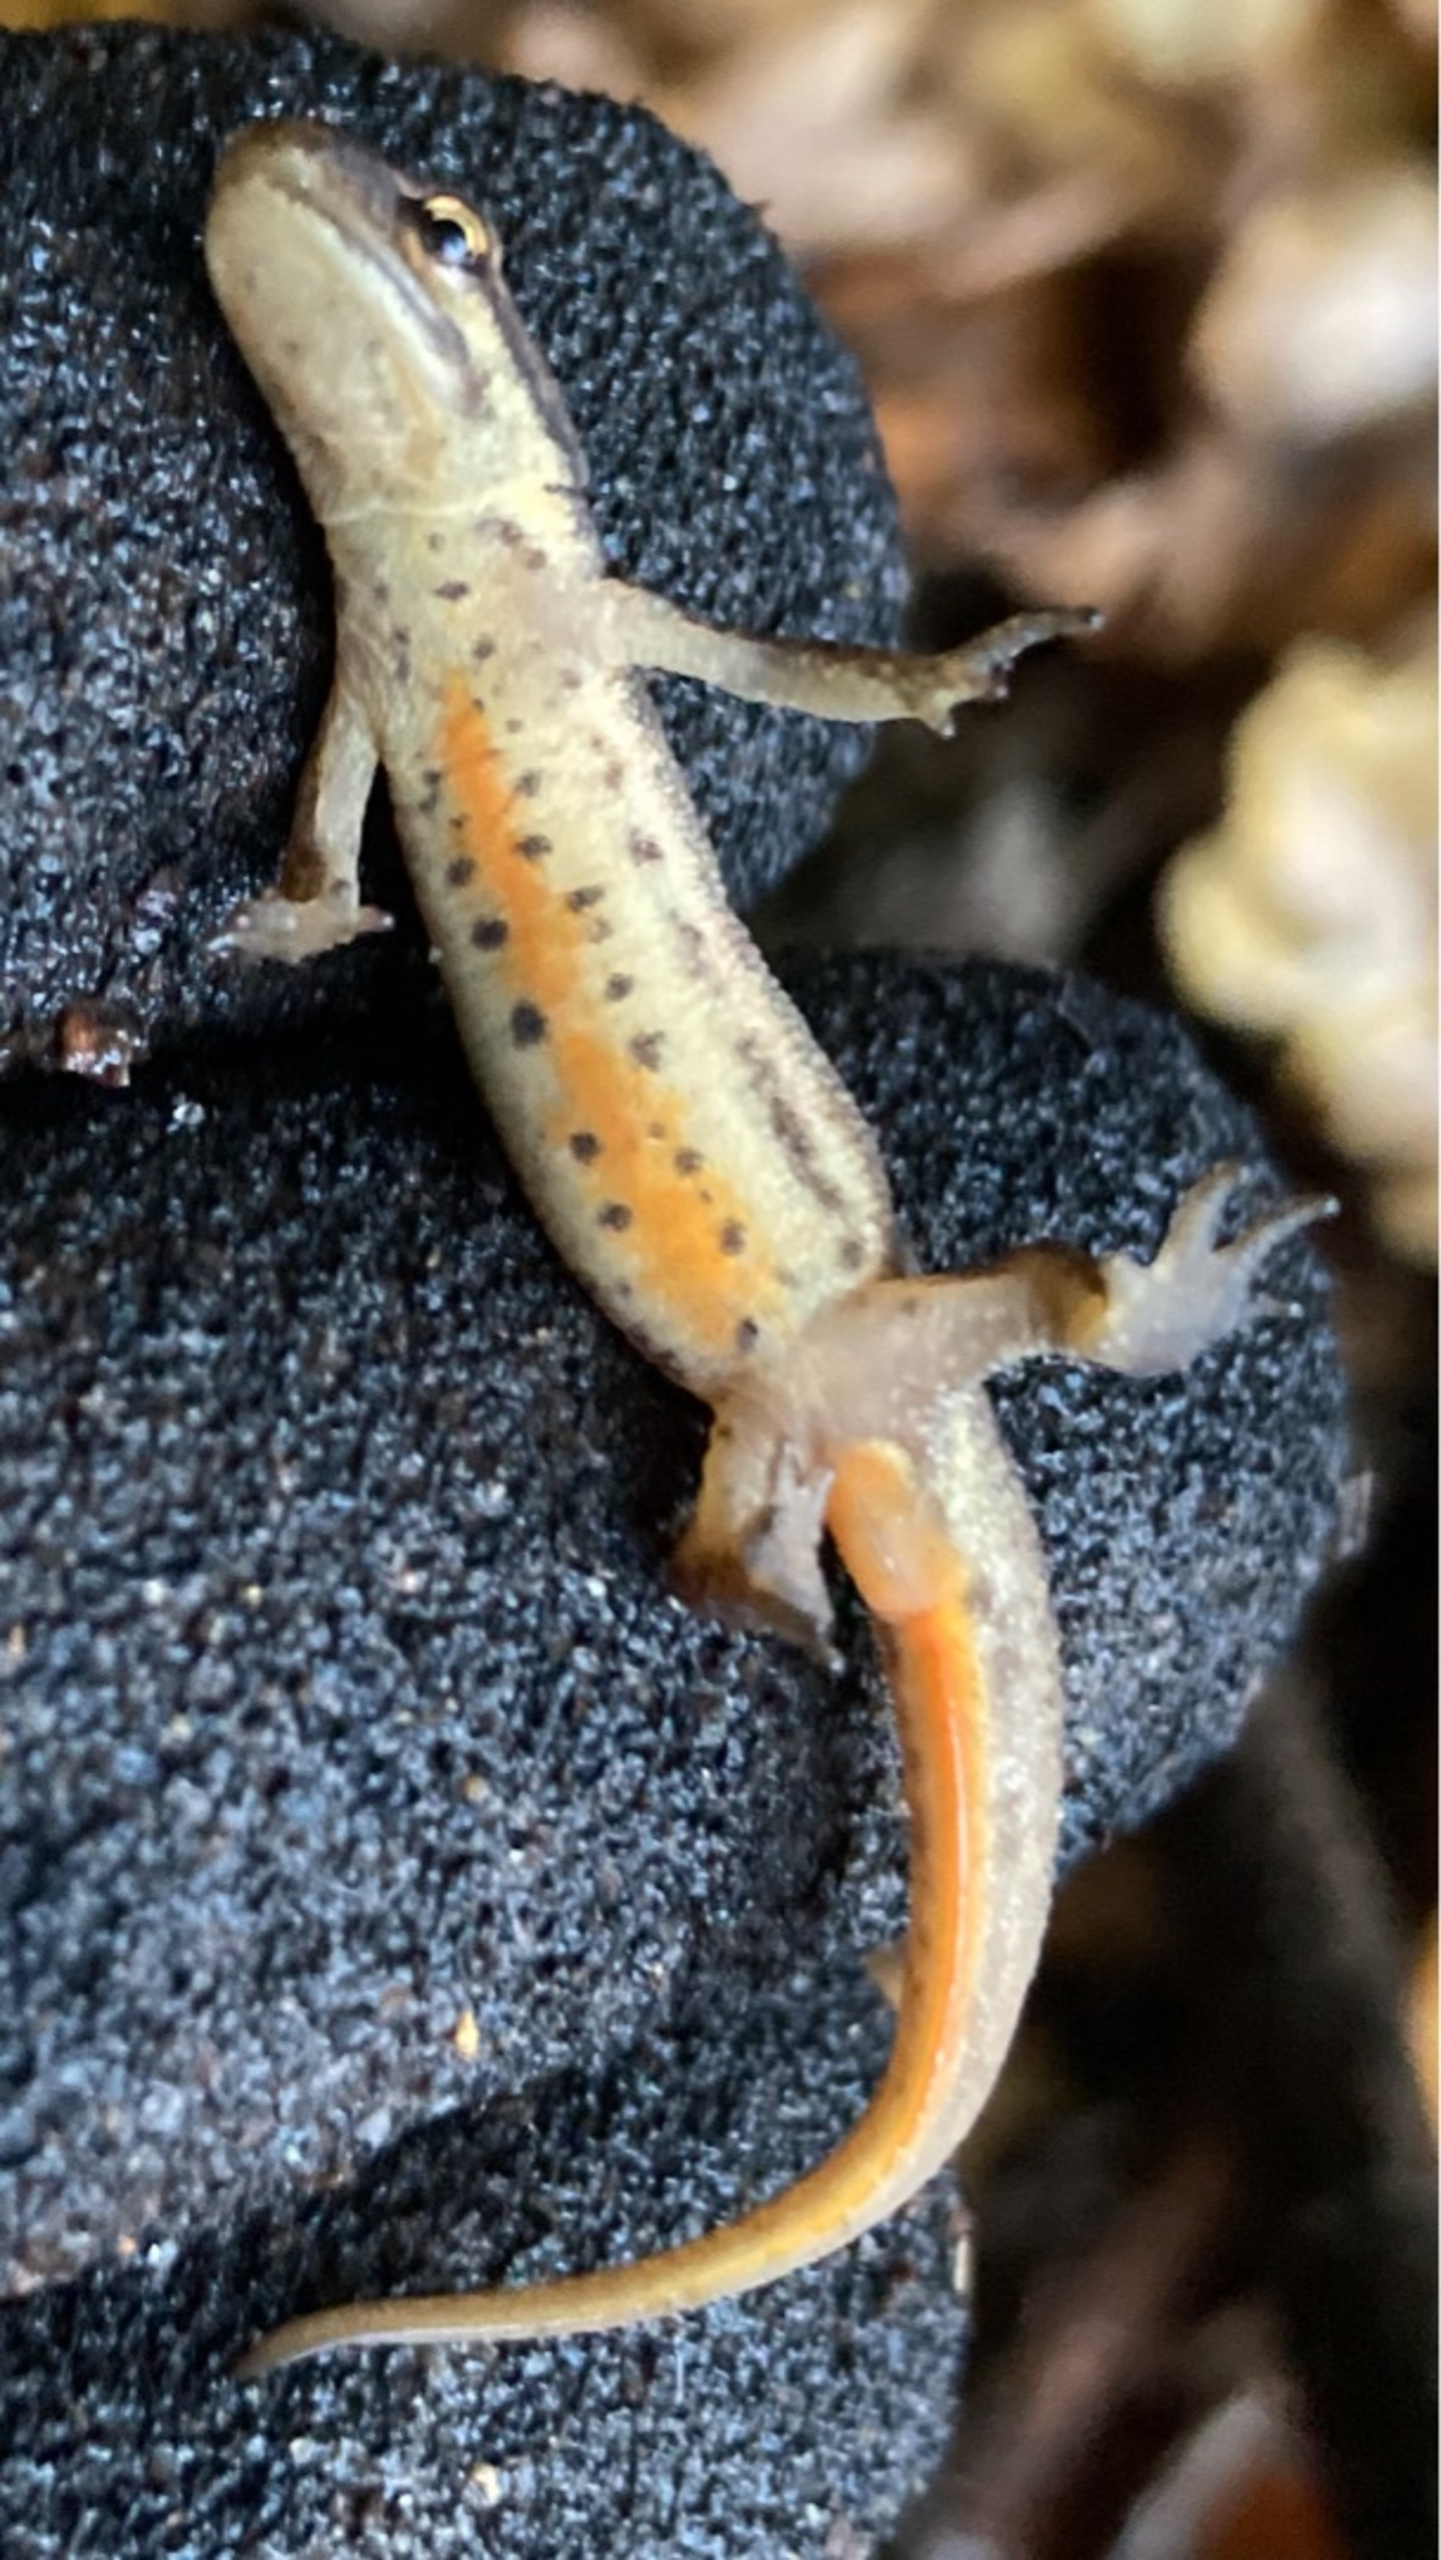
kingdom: Animalia
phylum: Chordata
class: Amphibia
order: Caudata
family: Salamandridae
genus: Lissotriton
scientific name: Lissotriton vulgaris
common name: Lille vandsalamander
